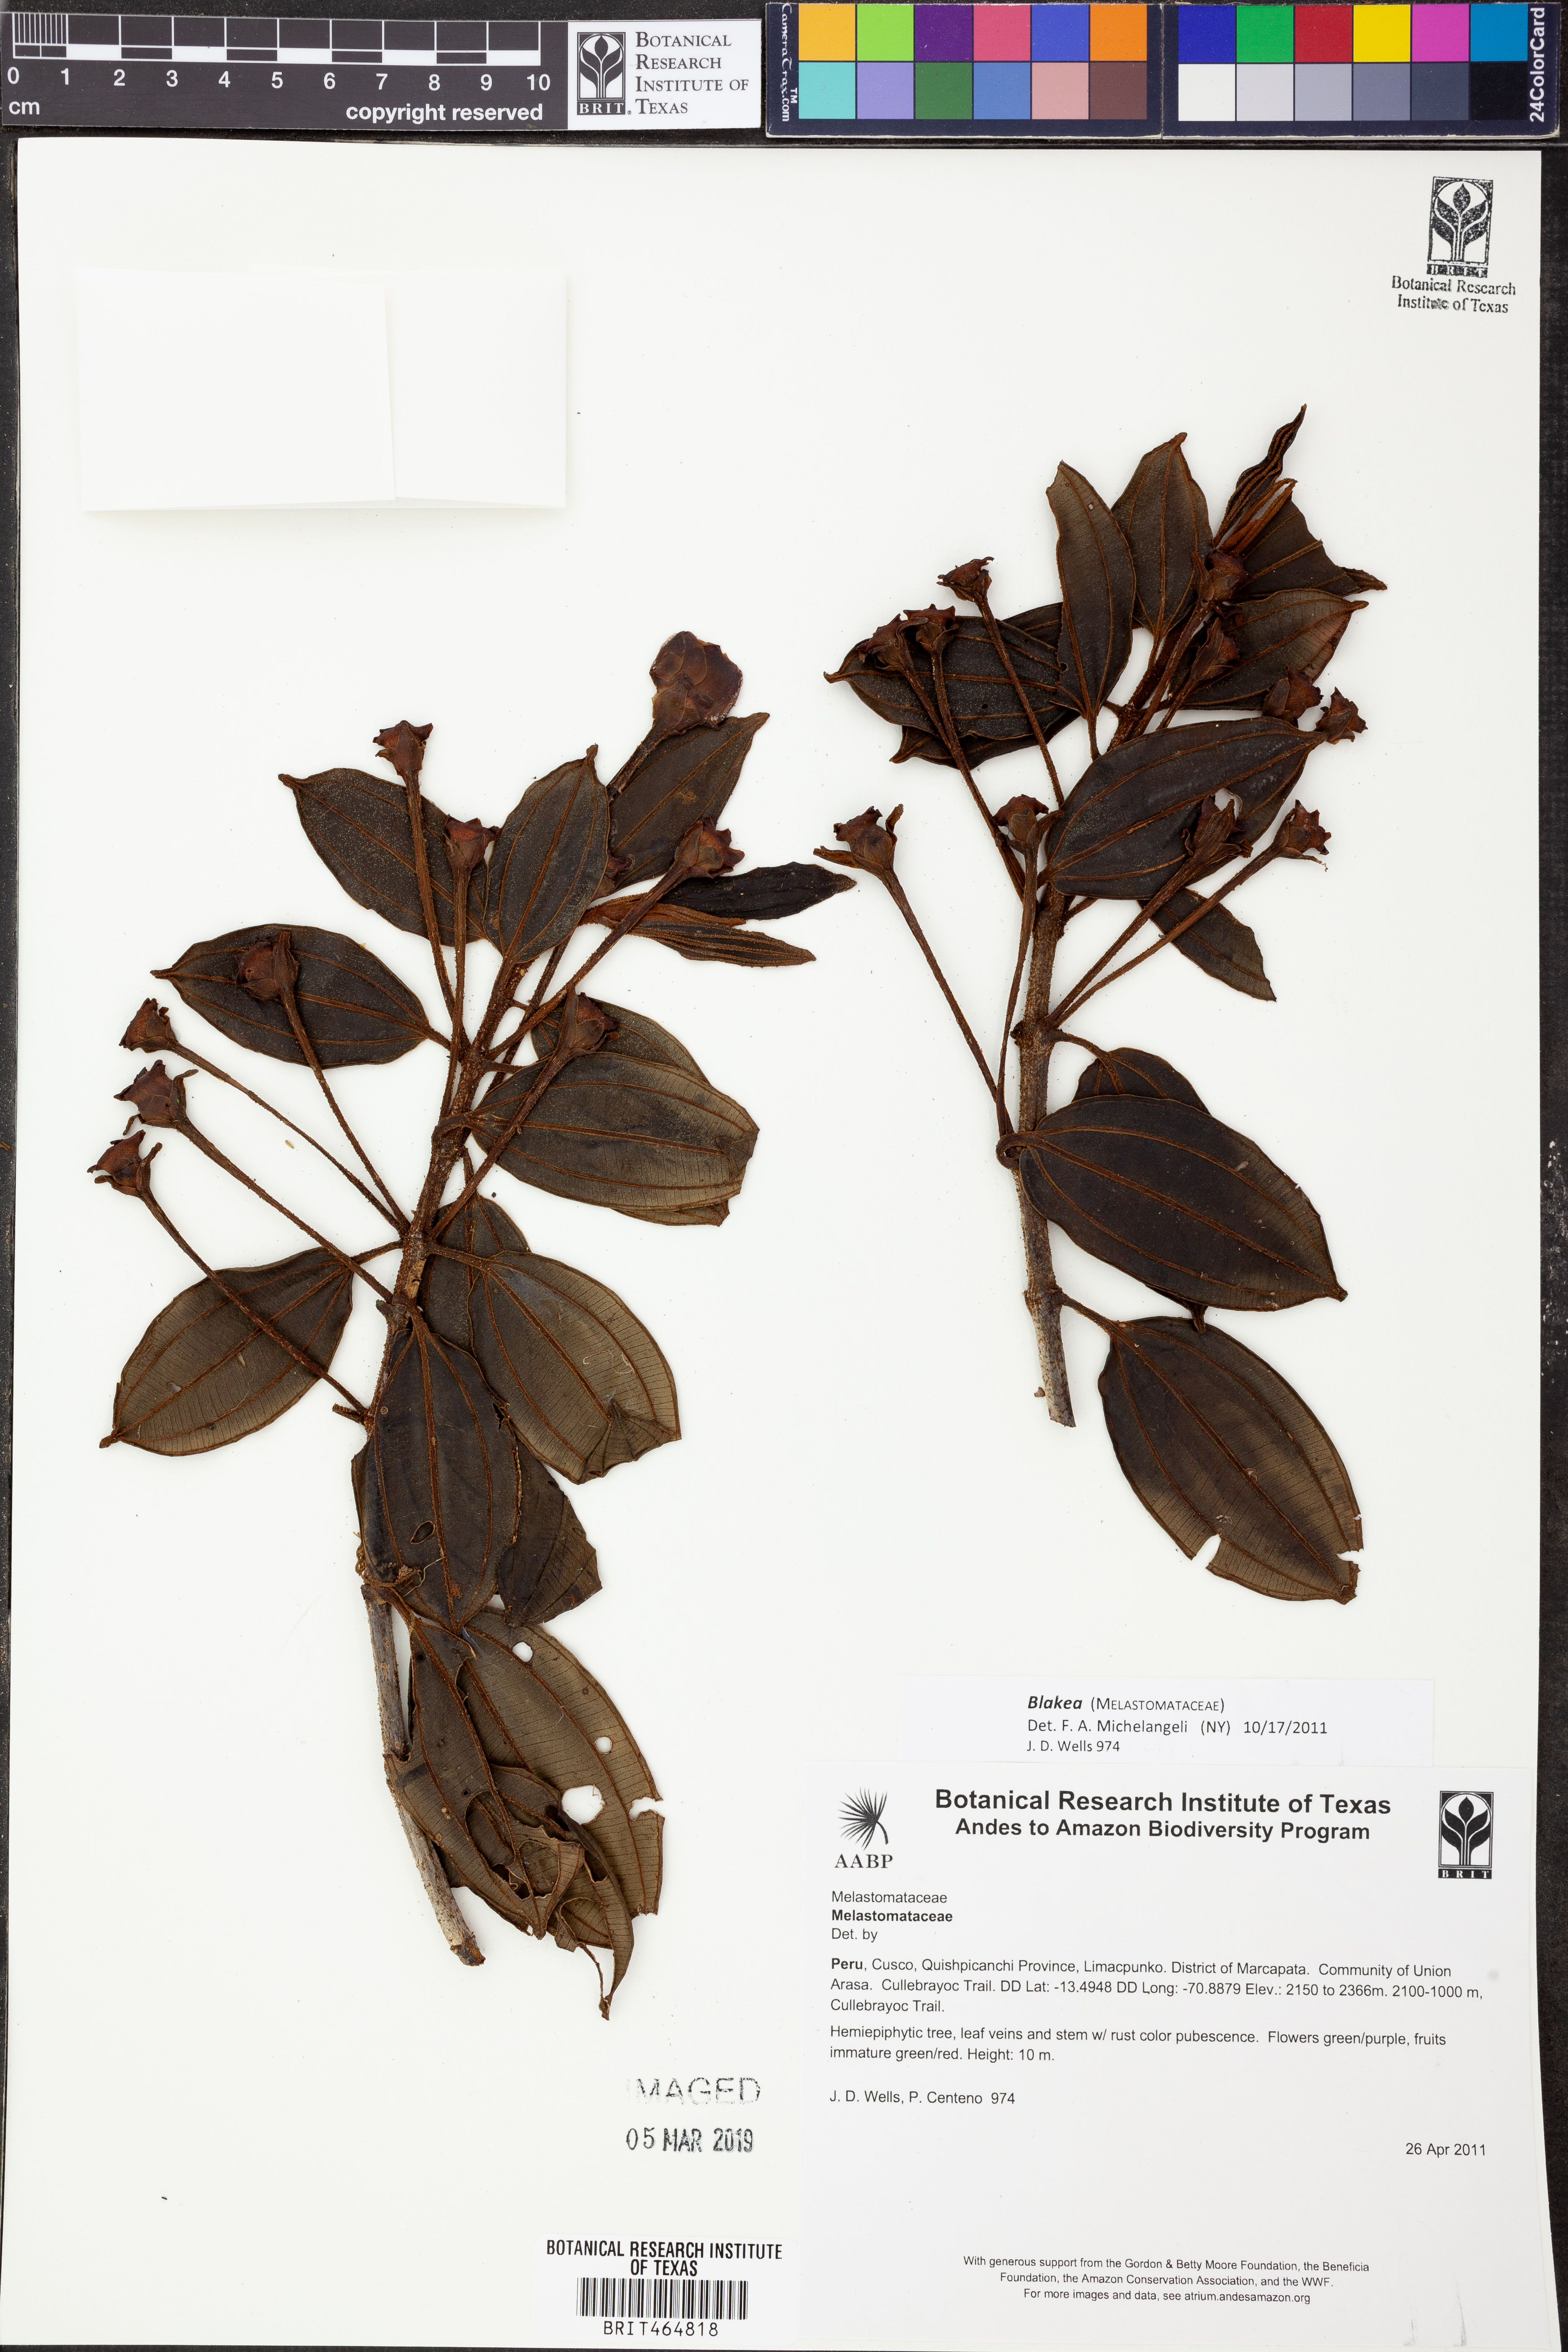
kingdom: Plantae
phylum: Tracheophyta
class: Magnoliopsida
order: Myrtales
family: Melastomataceae
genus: Blakea
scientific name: Blakea
